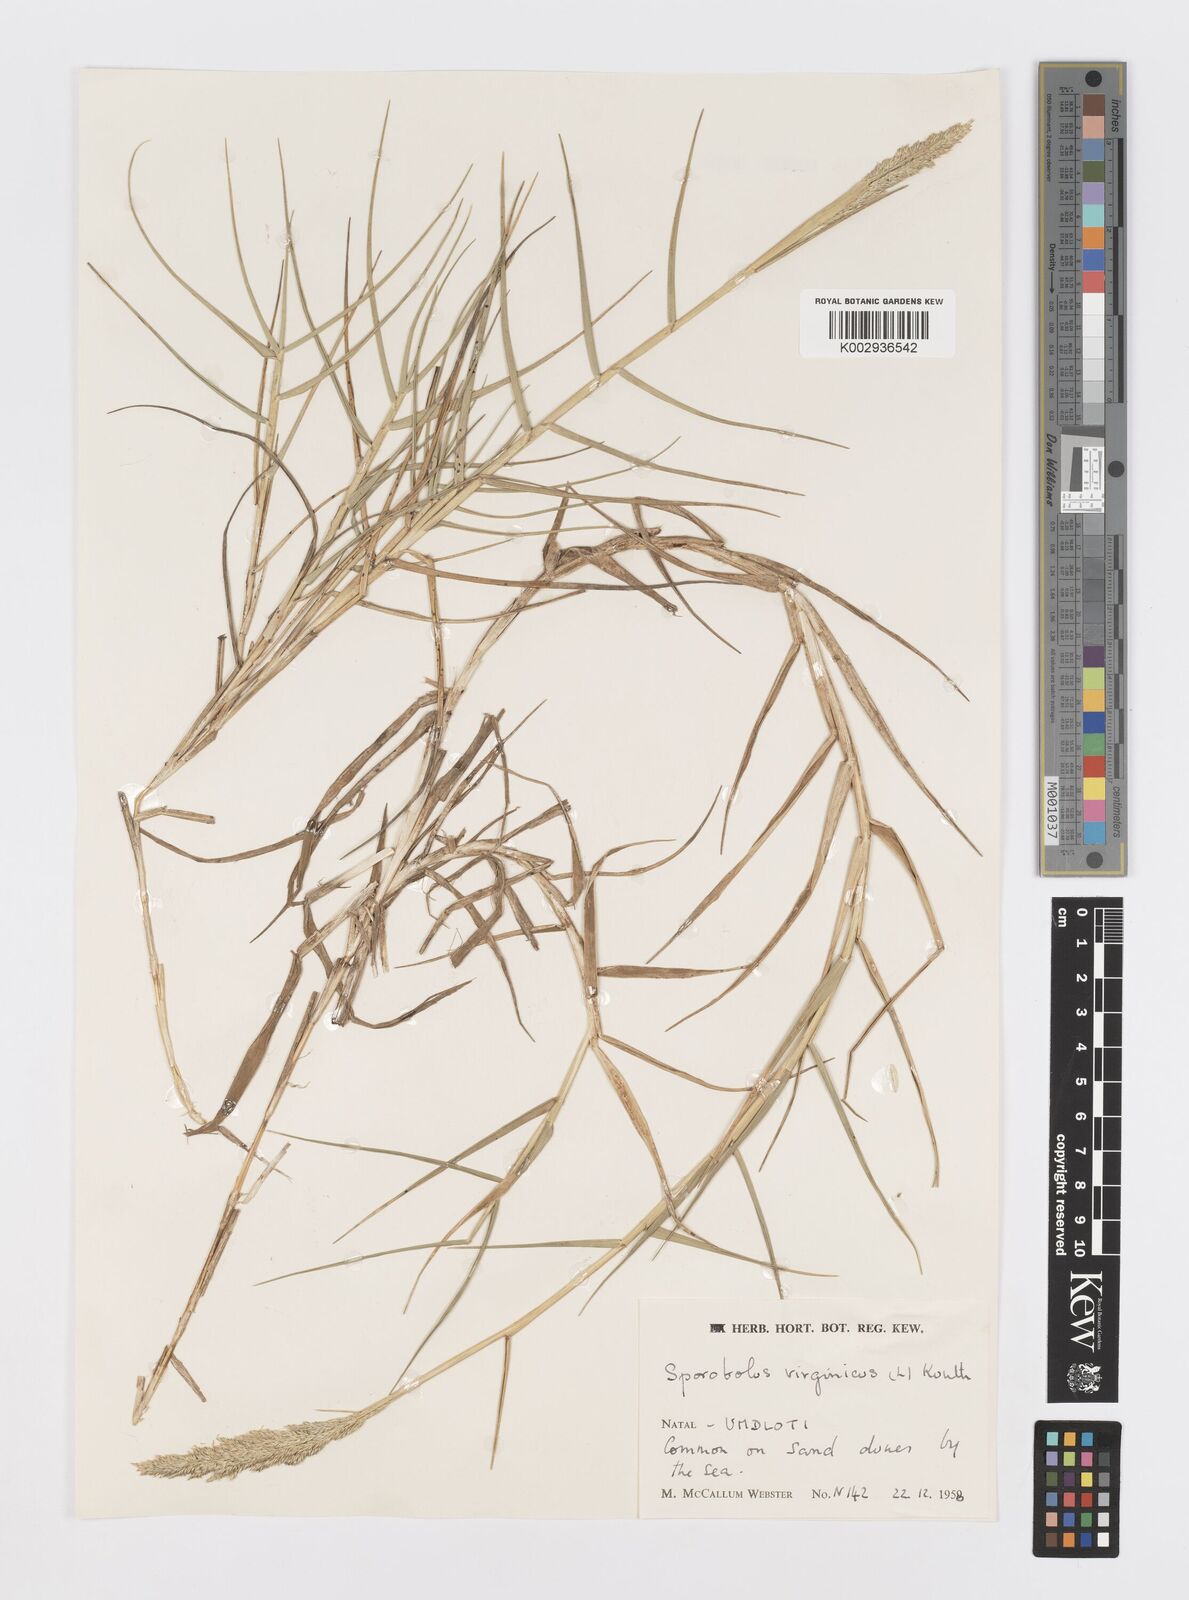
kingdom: Plantae
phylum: Tracheophyta
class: Liliopsida
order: Poales
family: Poaceae
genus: Sporobolus
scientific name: Sporobolus virginicus
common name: Beach dropseed
